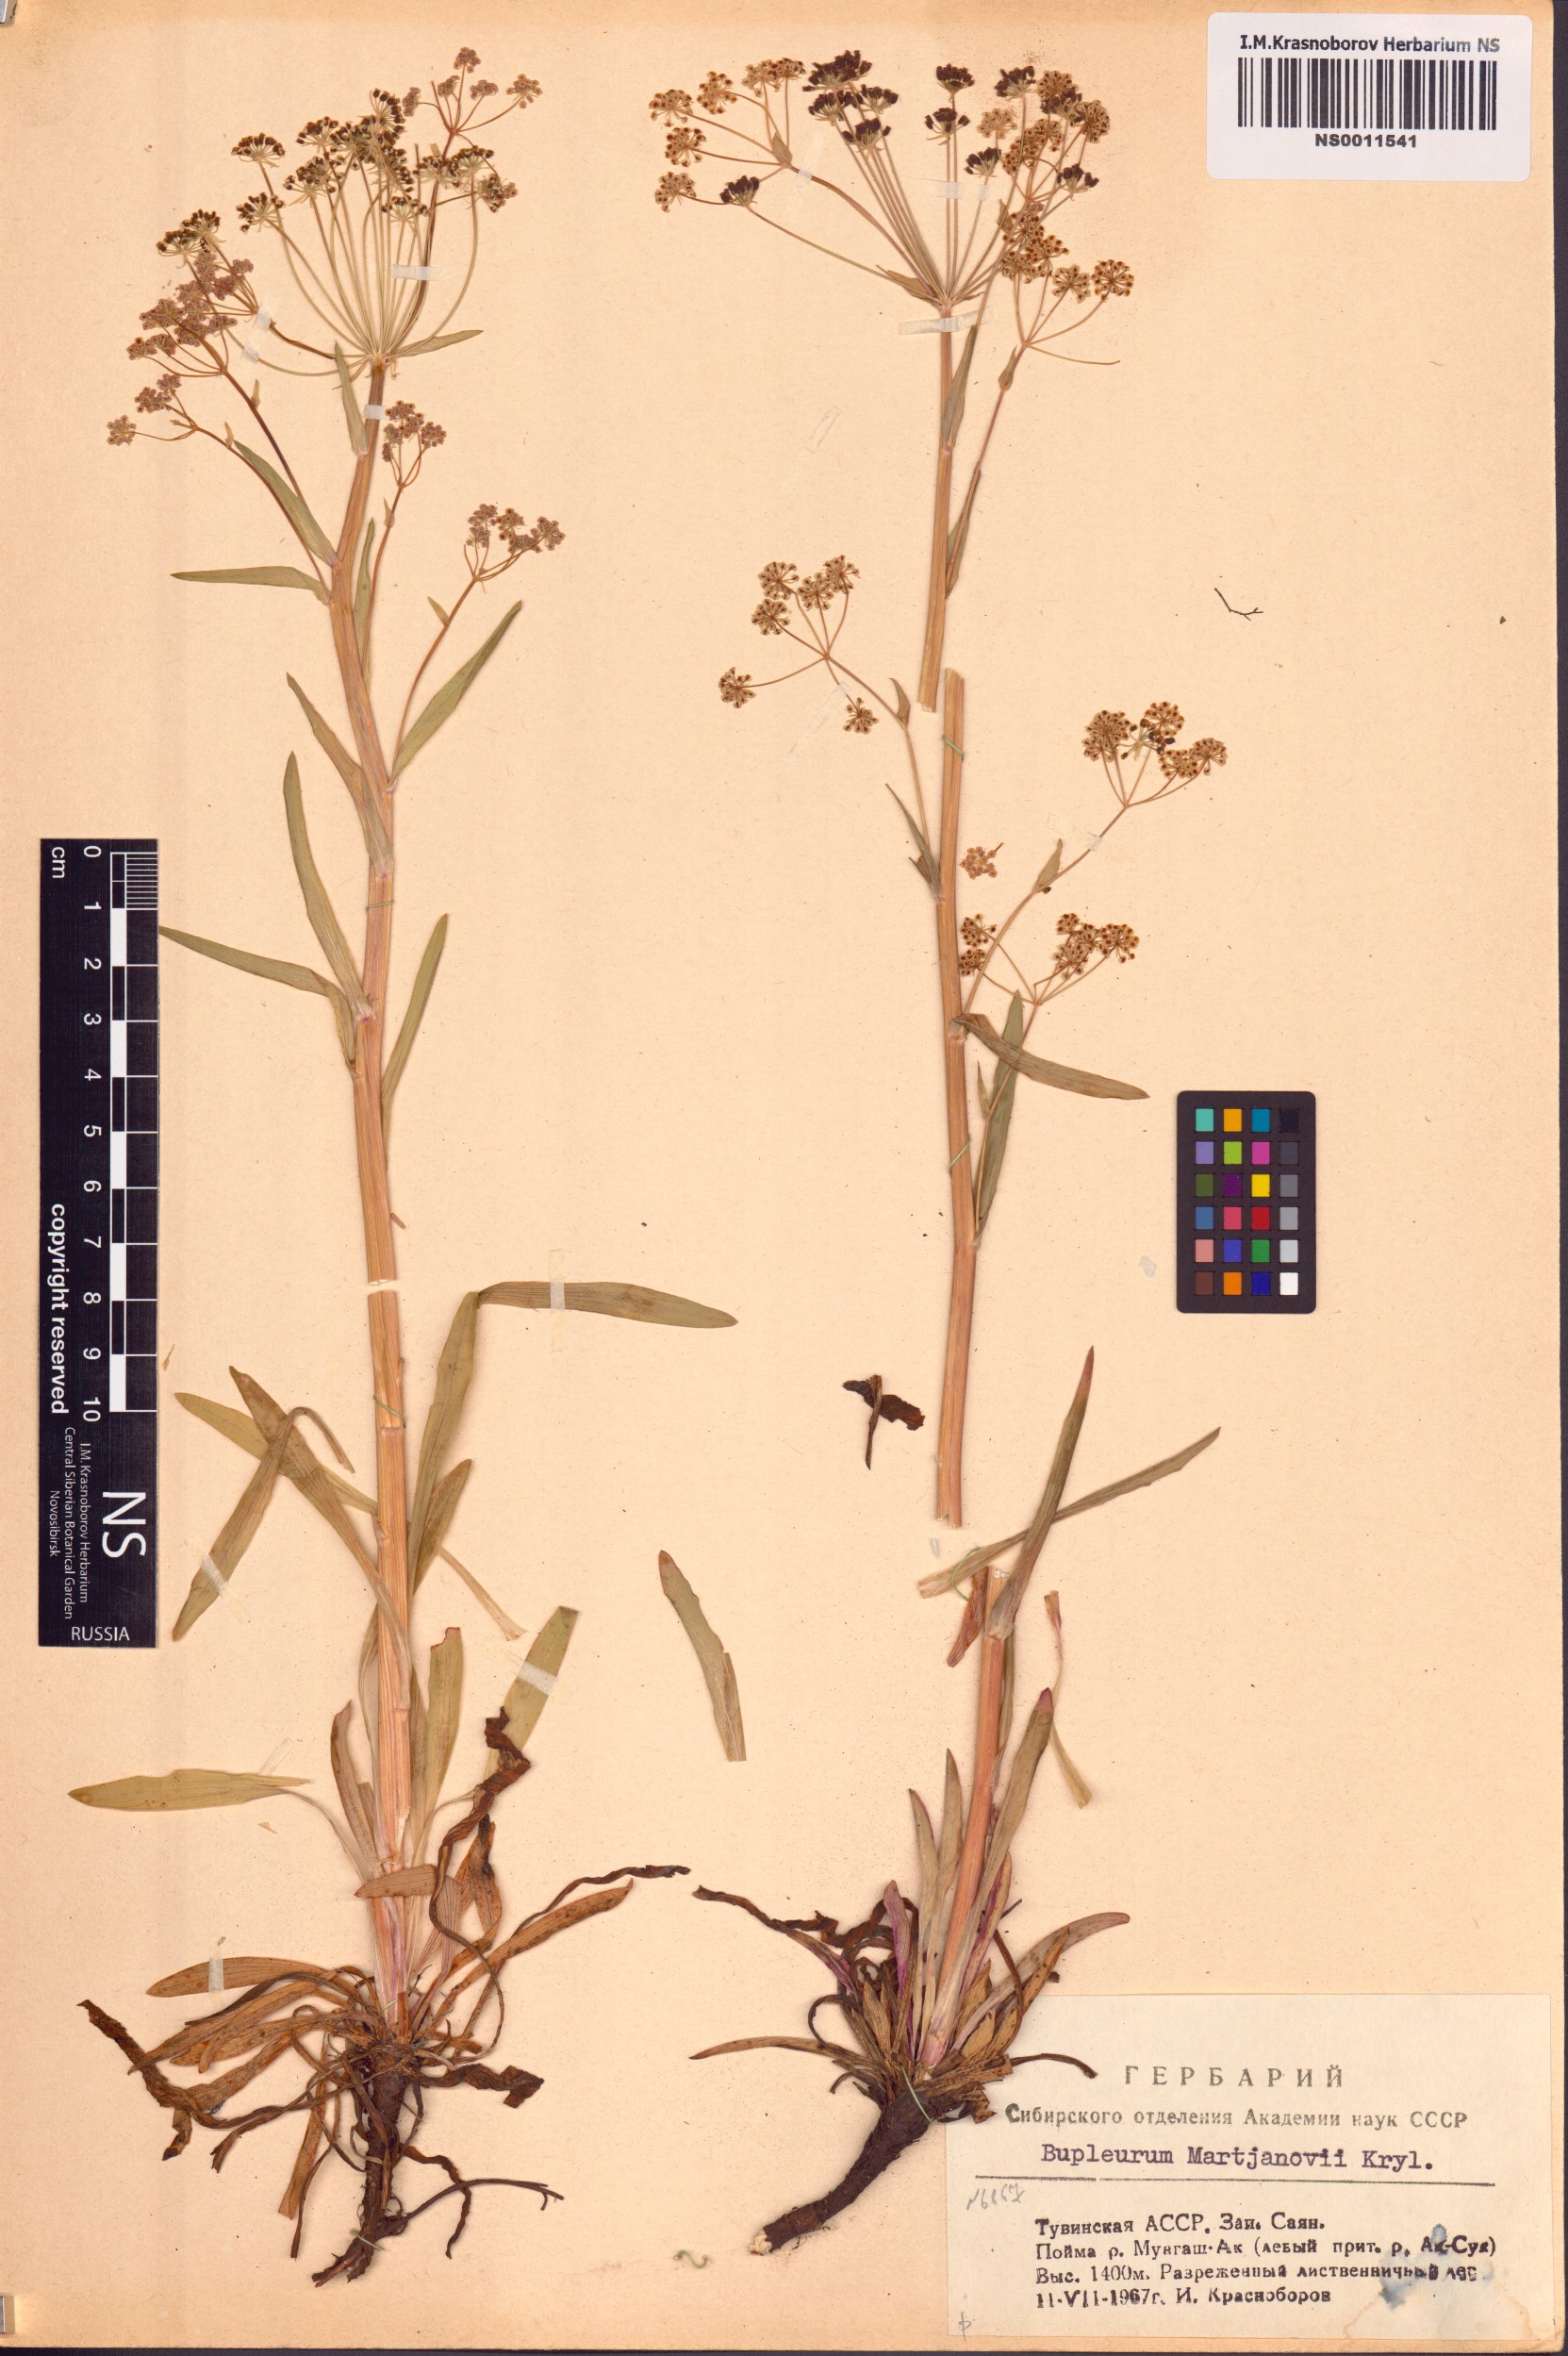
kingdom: Plantae
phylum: Tracheophyta
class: Magnoliopsida
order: Apiales
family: Apiaceae
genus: Bupleurum
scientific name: Bupleurum martjanovii
